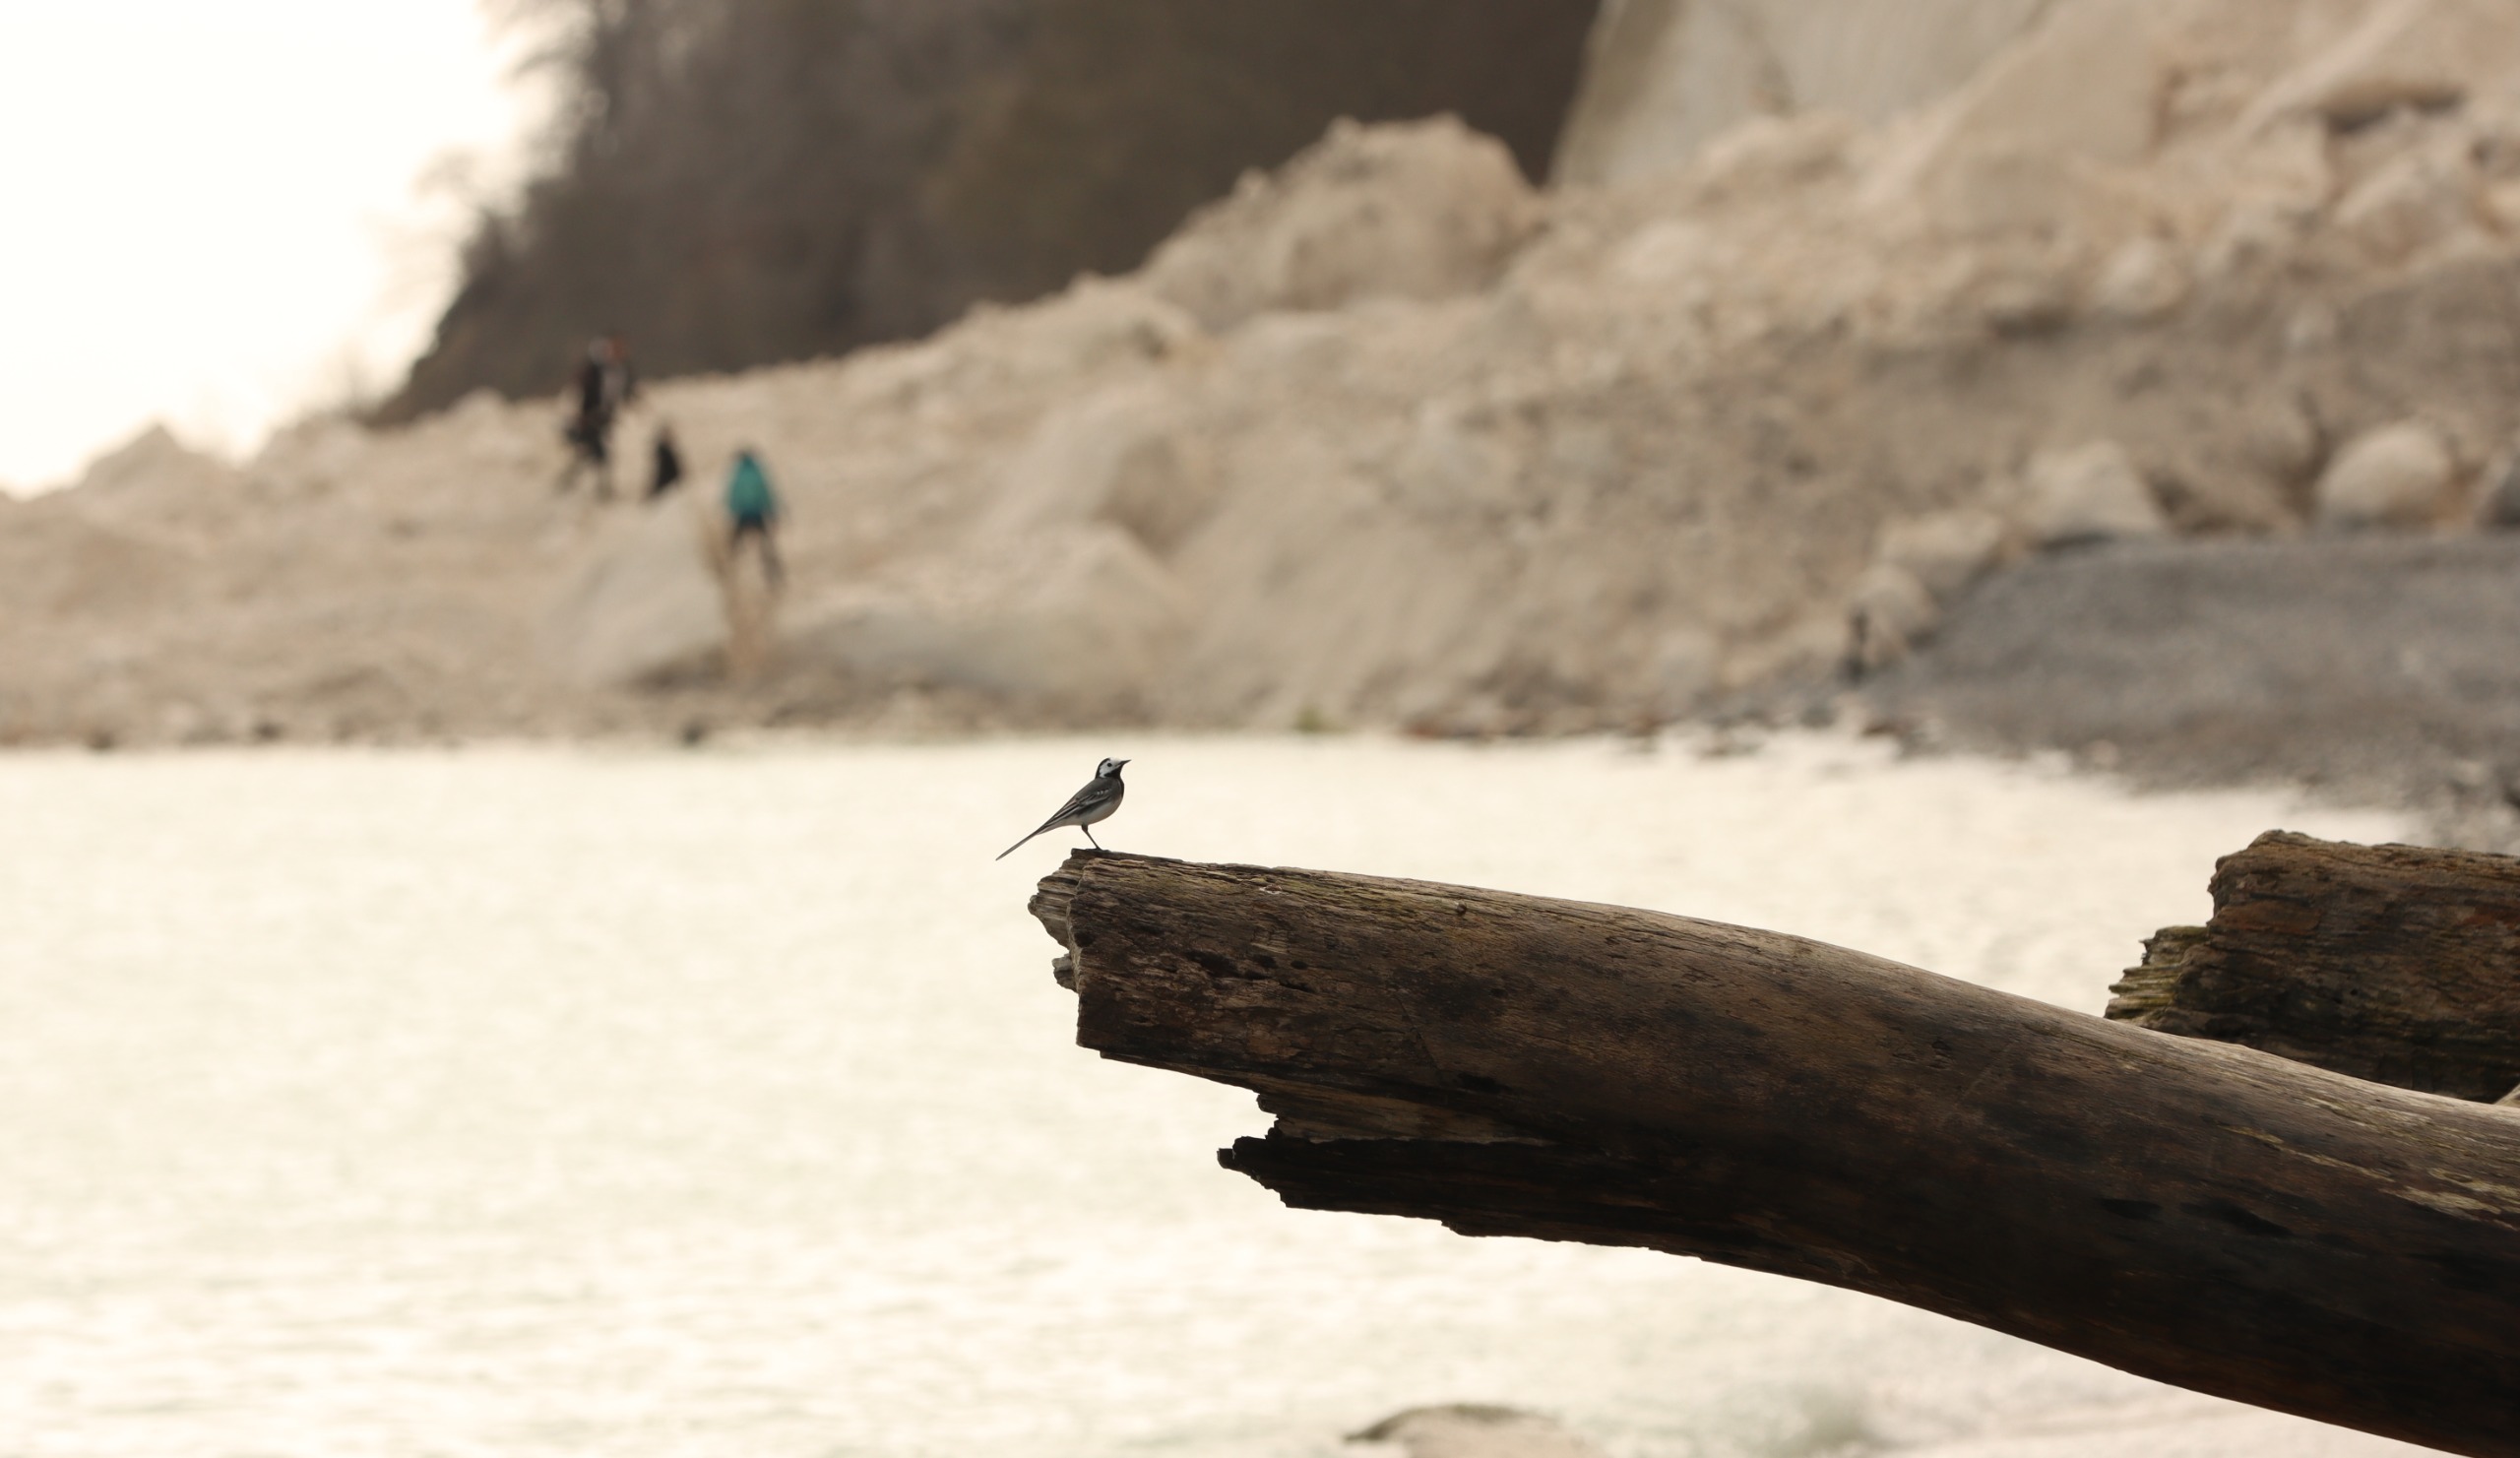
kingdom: Animalia
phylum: Chordata
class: Aves
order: Passeriformes
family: Motacillidae
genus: Motacilla
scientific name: Motacilla alba
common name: Hvid vipstjert
